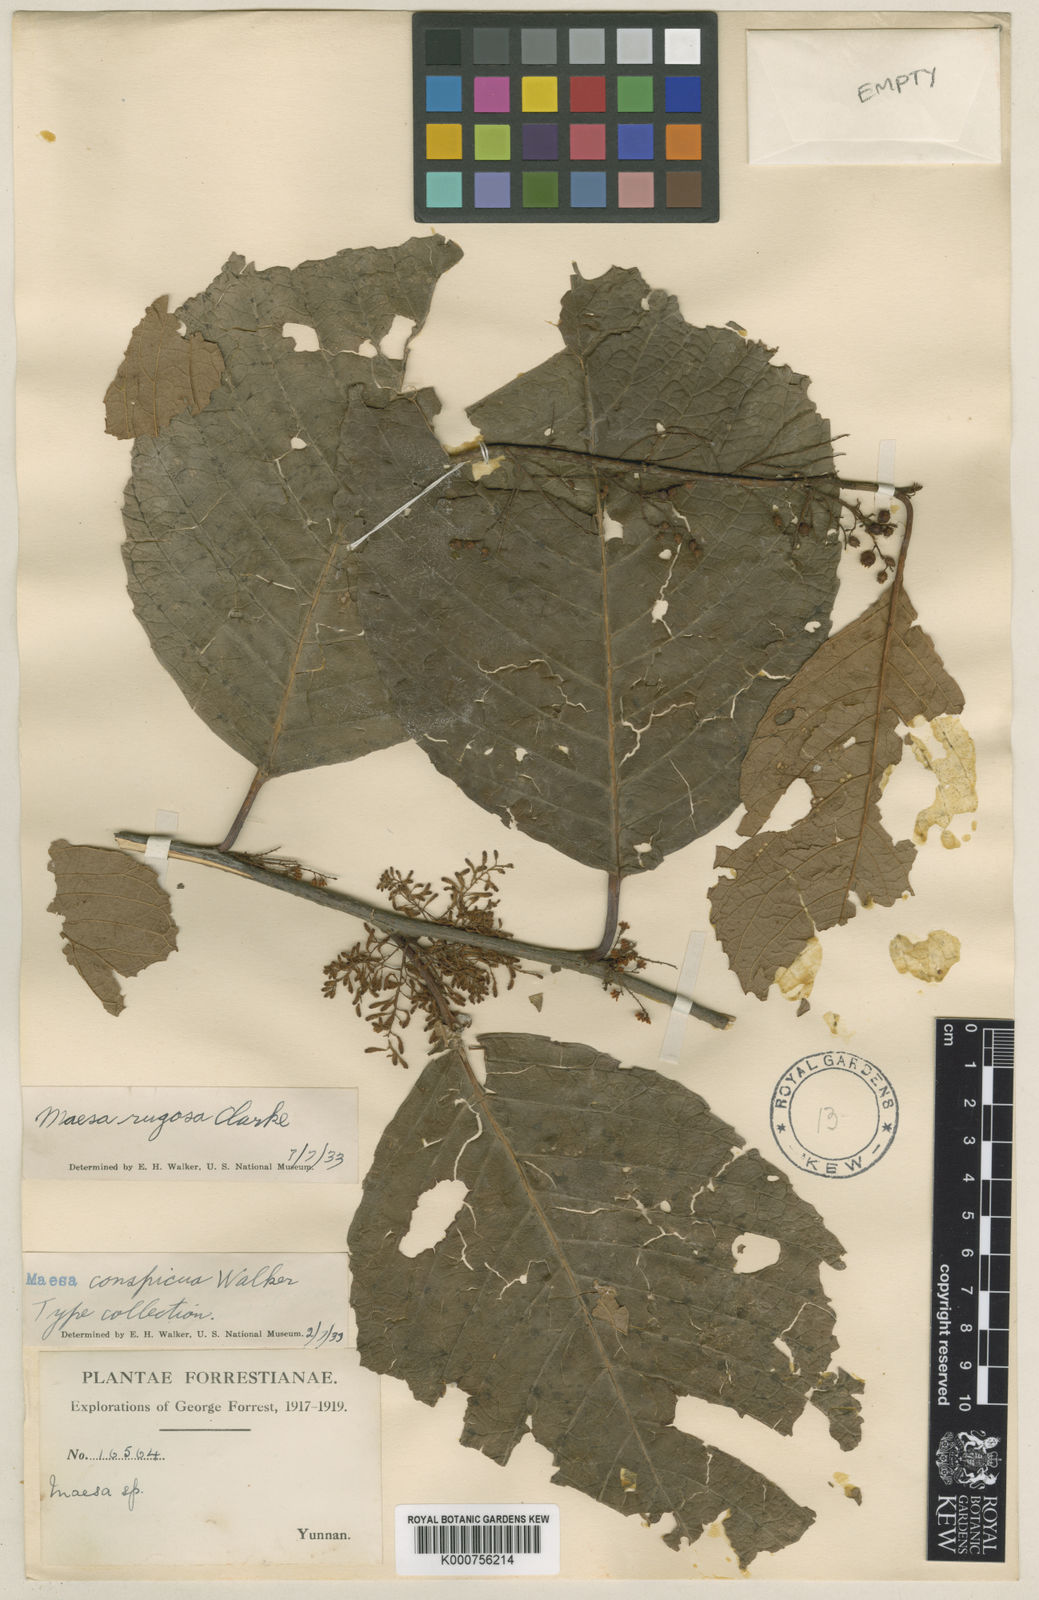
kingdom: Plantae
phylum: Tracheophyta
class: Magnoliopsida
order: Ericales
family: Primulaceae
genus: Maesa
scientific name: Maesa rugosa
